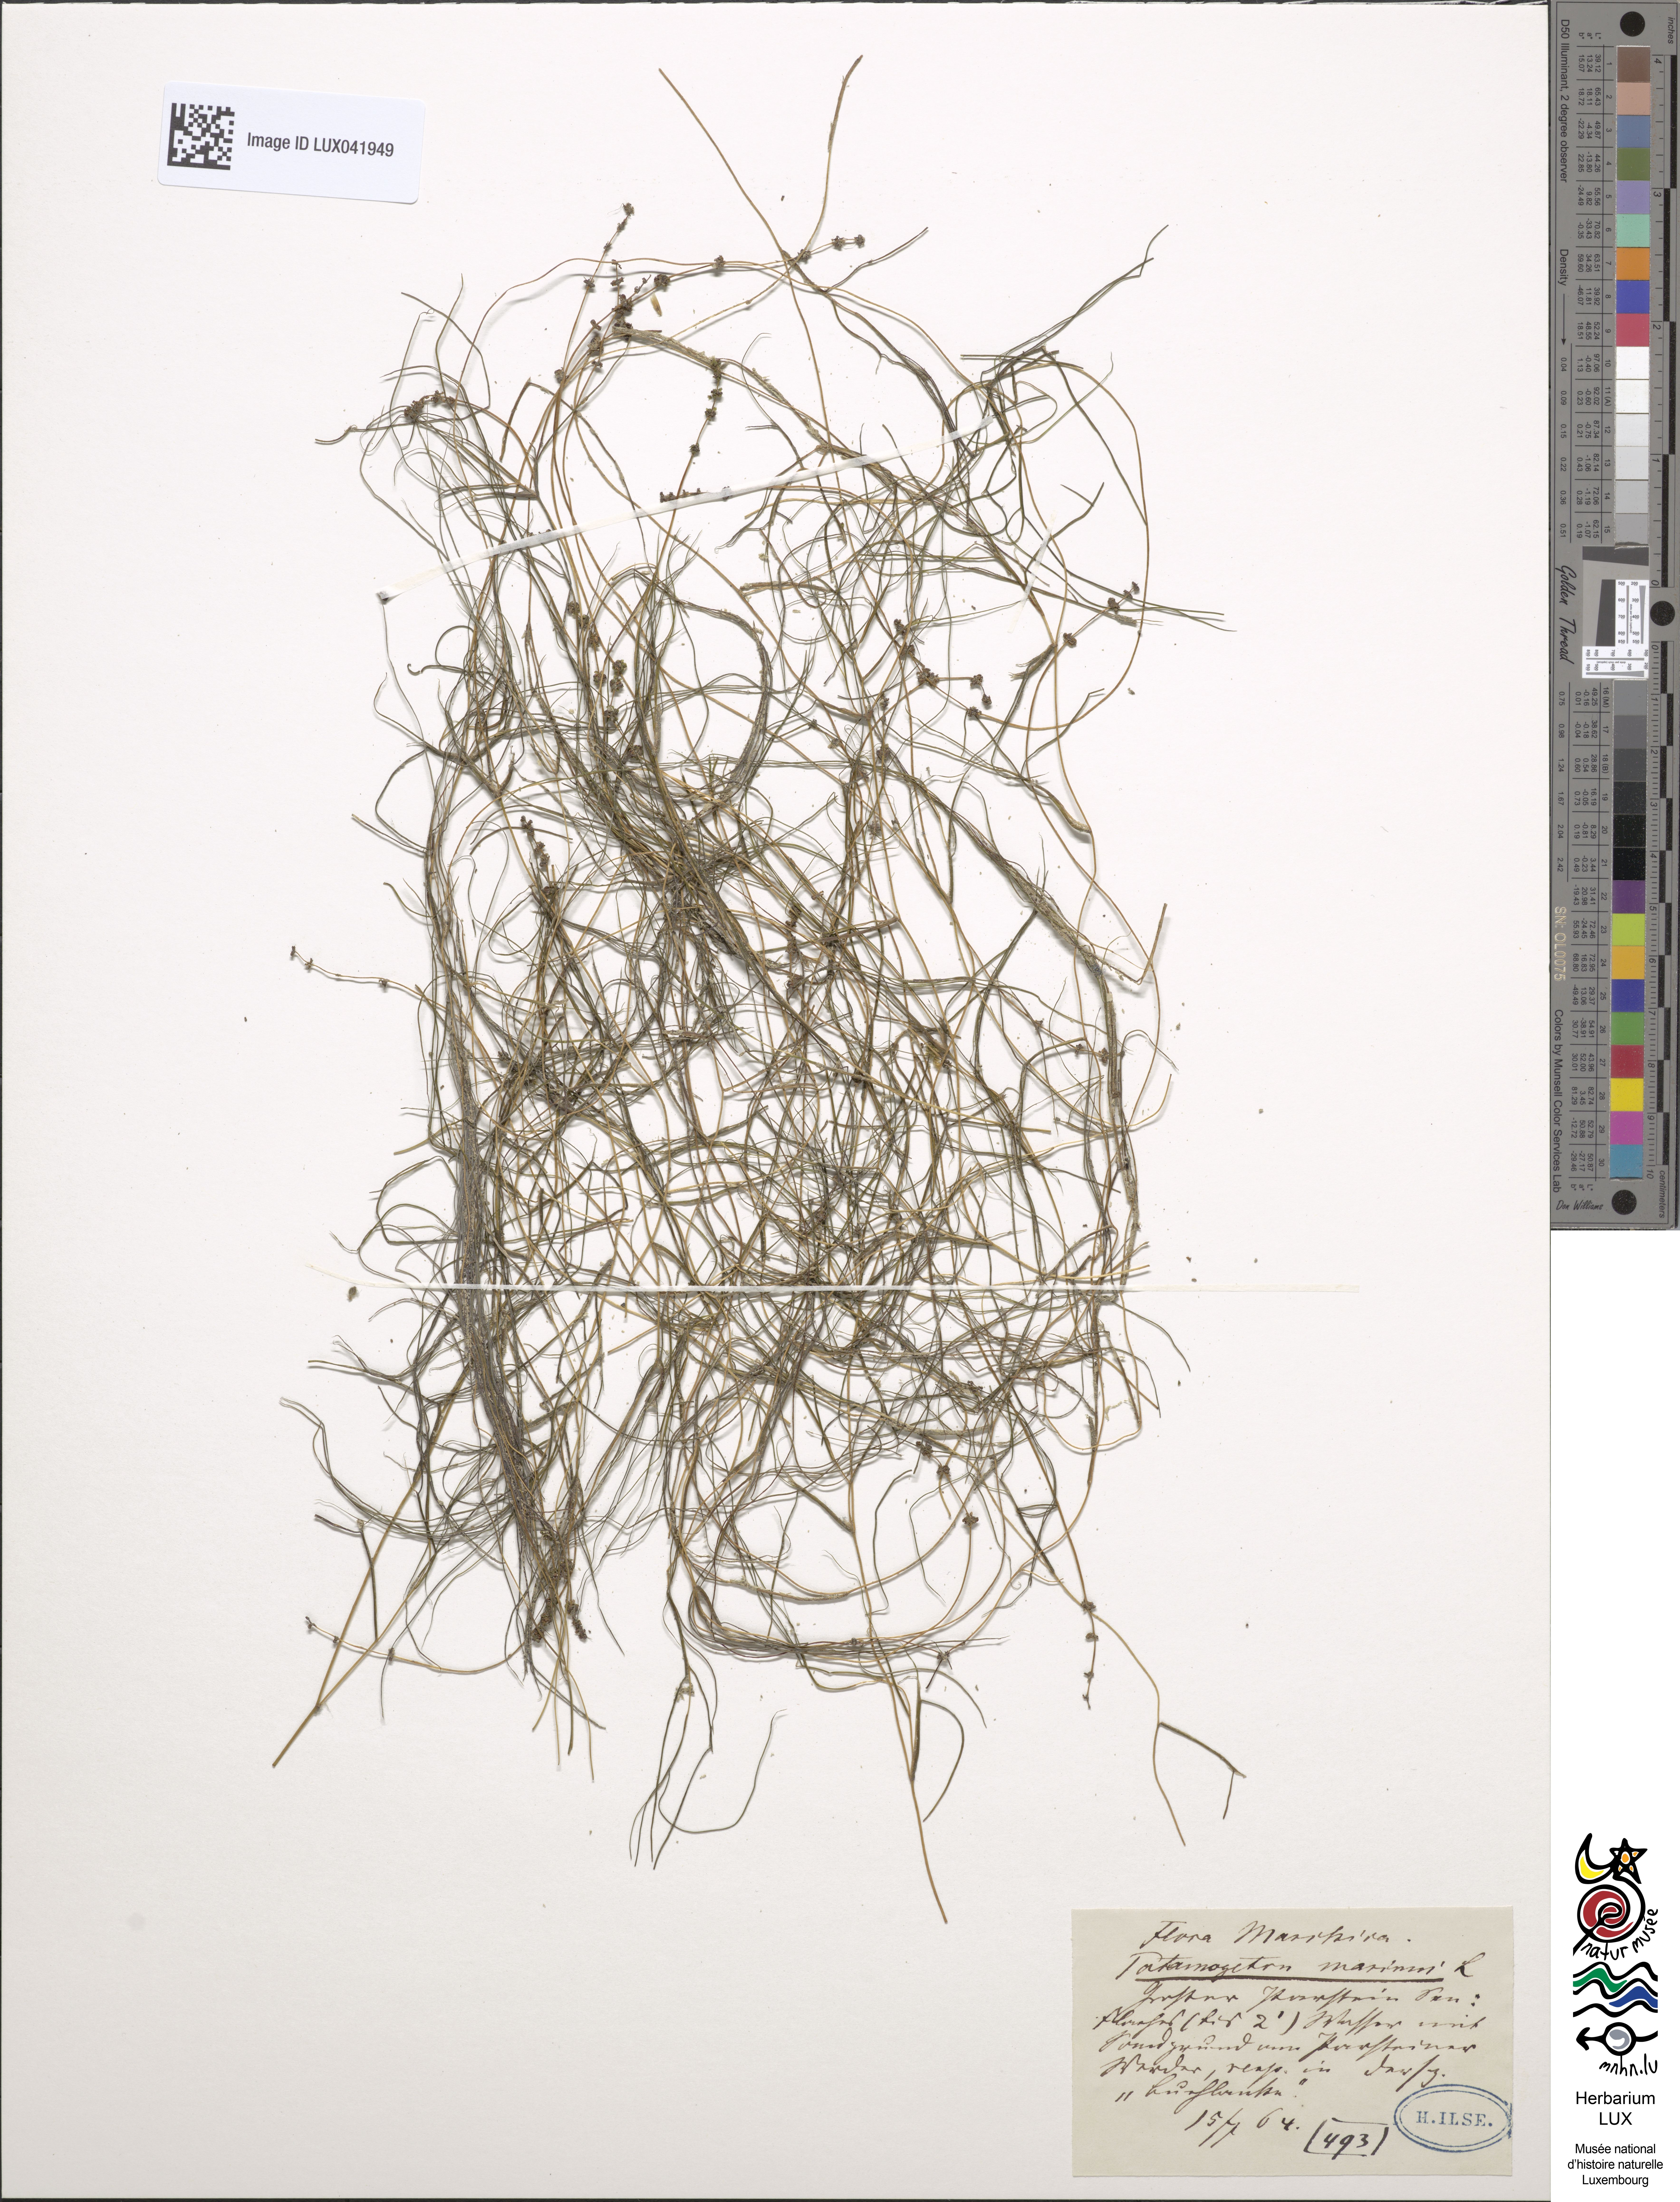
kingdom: Plantae
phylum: Tracheophyta
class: Liliopsida
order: Alismatales
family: Potamogetonaceae
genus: Stuckenia
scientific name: Stuckenia filiformis
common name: Alpine thread-leaved pondweed
